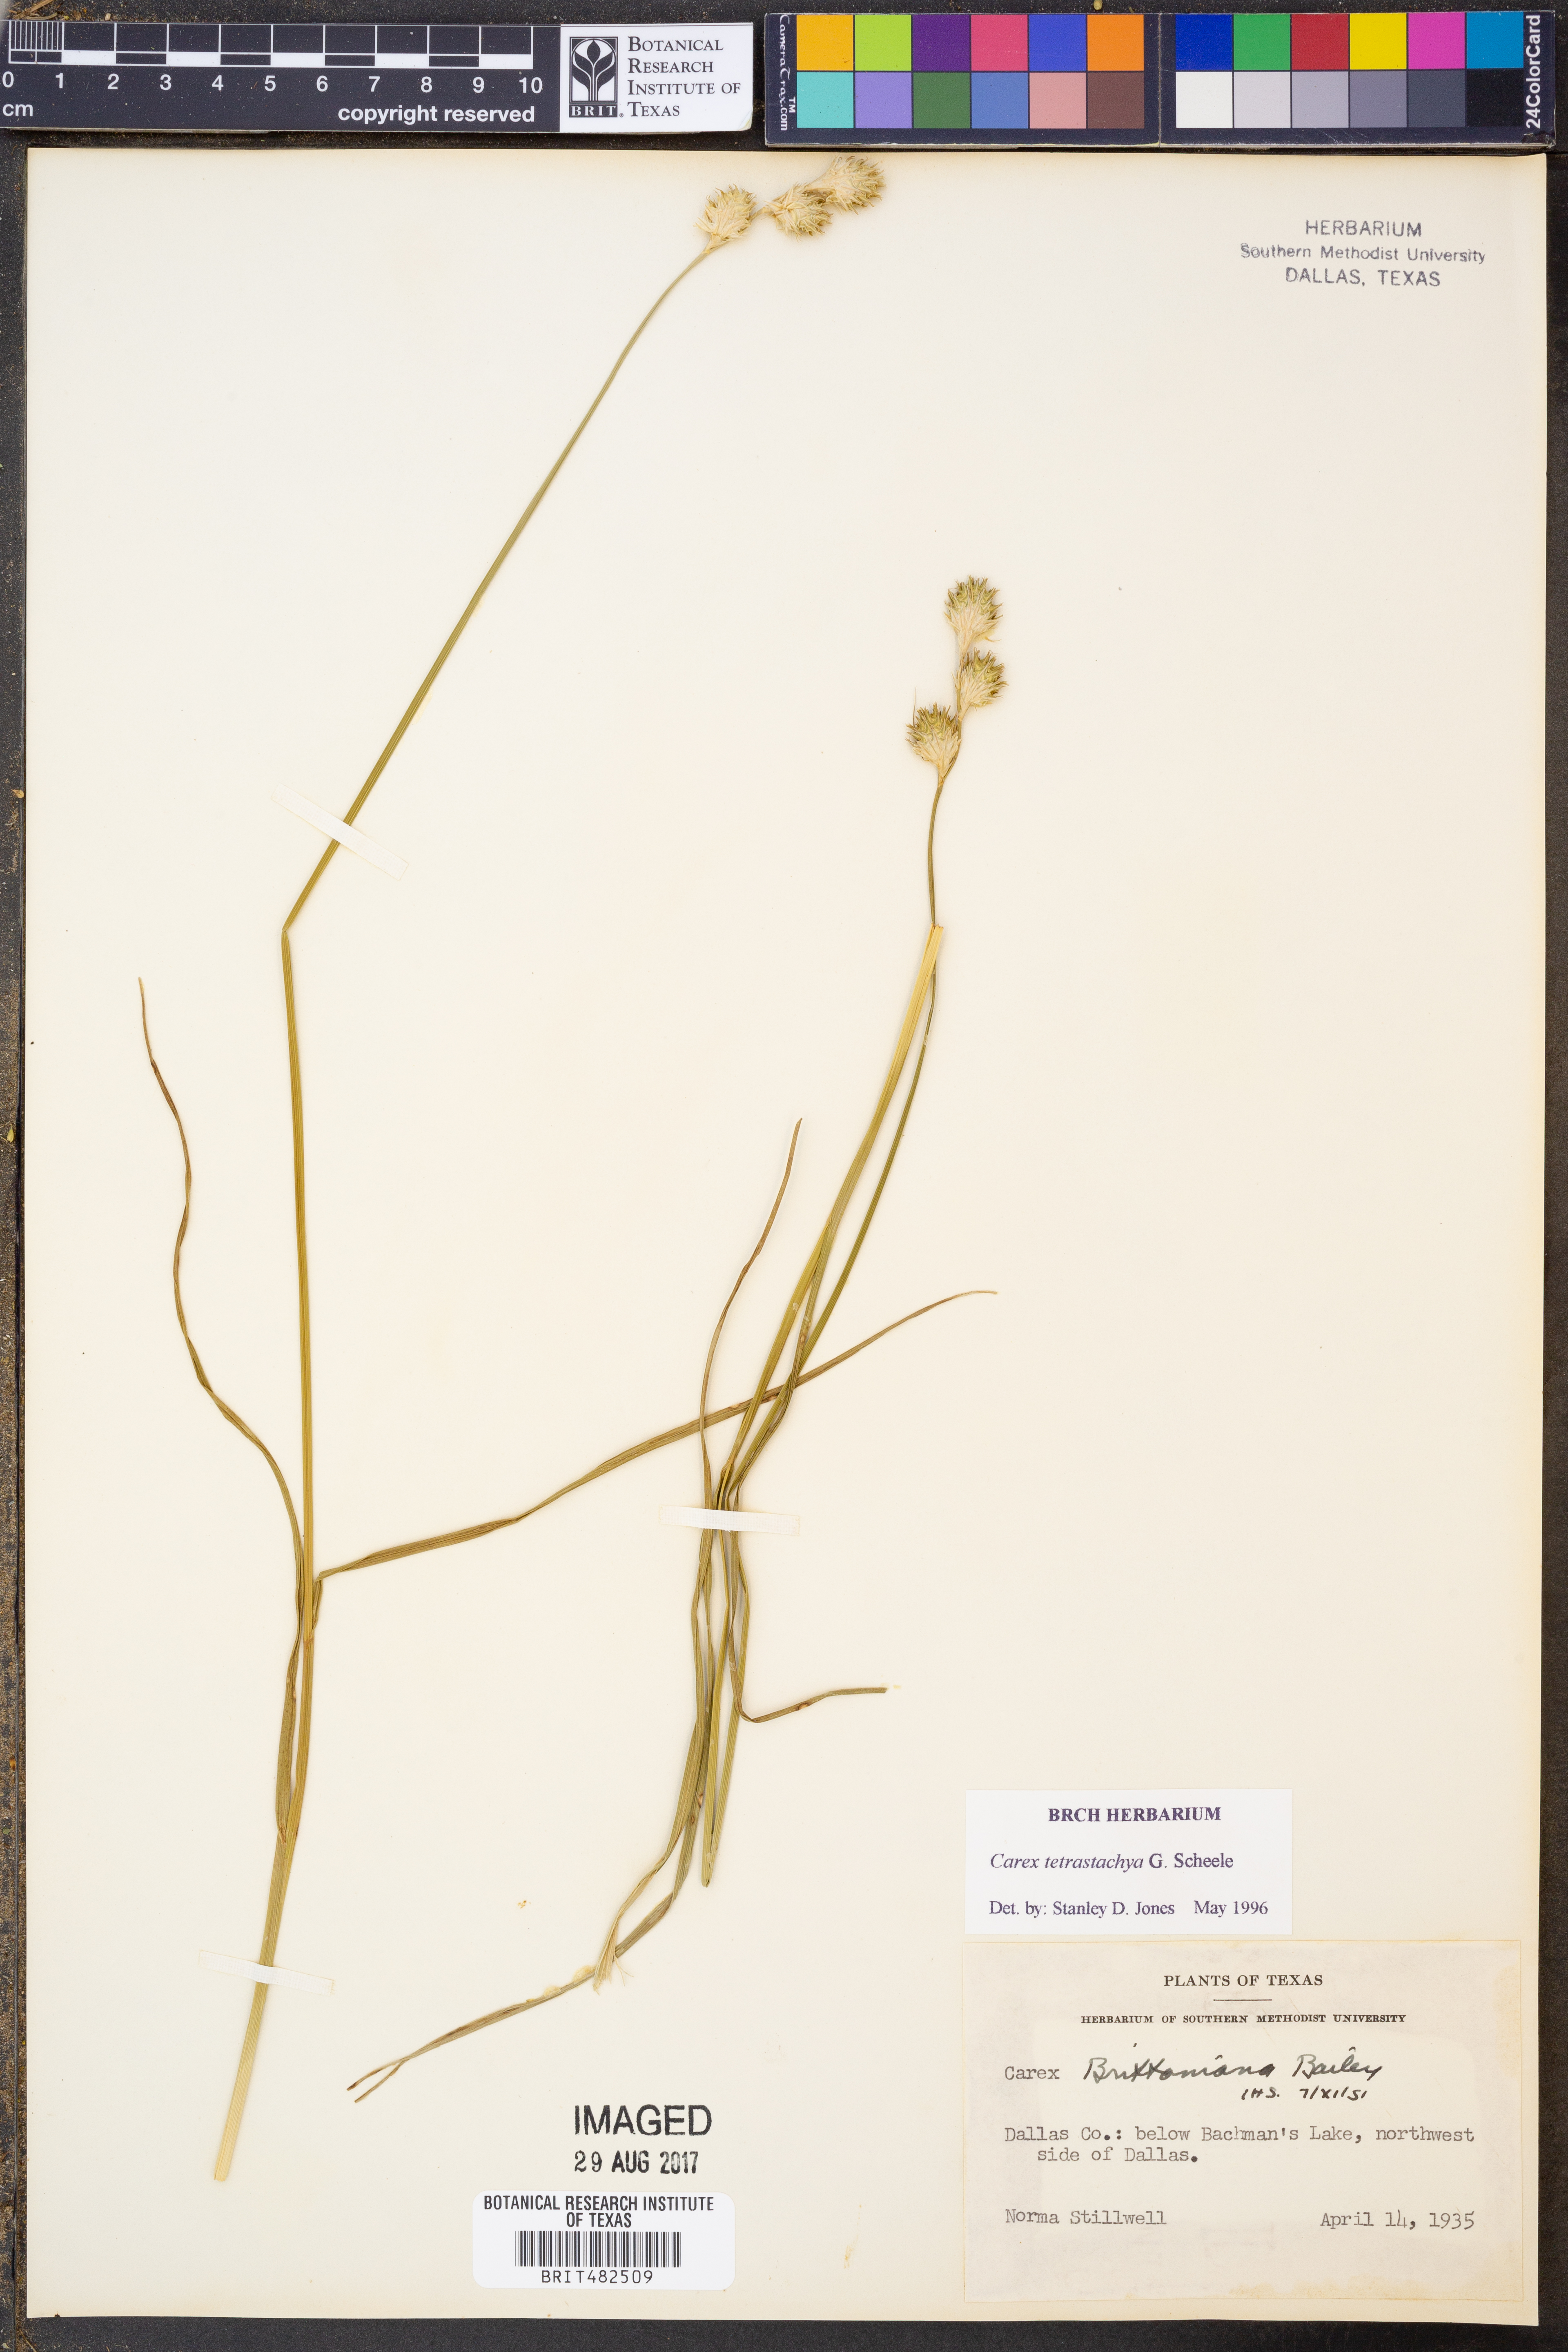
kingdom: Plantae
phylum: Tracheophyta
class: Liliopsida
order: Poales
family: Cyperaceae
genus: Carex
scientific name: Carex tetrastachya
